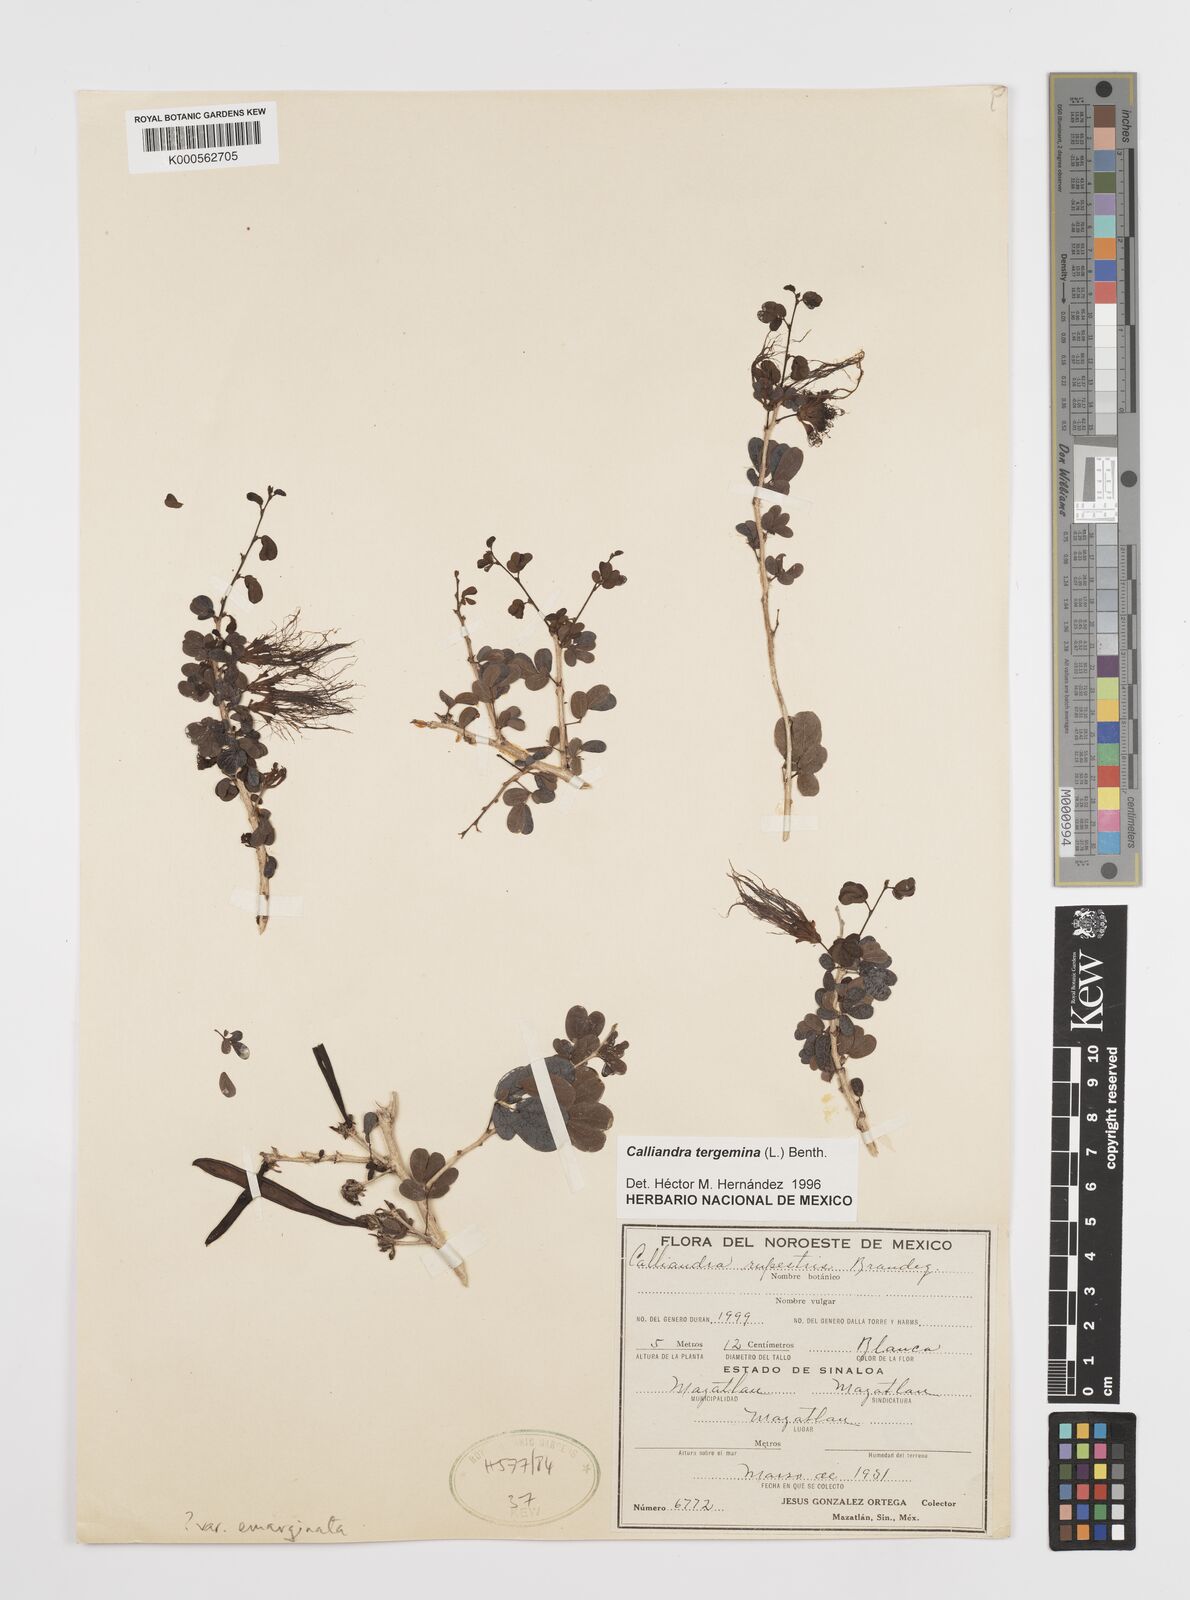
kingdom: Plantae
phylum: Tracheophyta
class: Magnoliopsida
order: Fabales
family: Fabaceae
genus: Calliandra
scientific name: Calliandra tergemina
